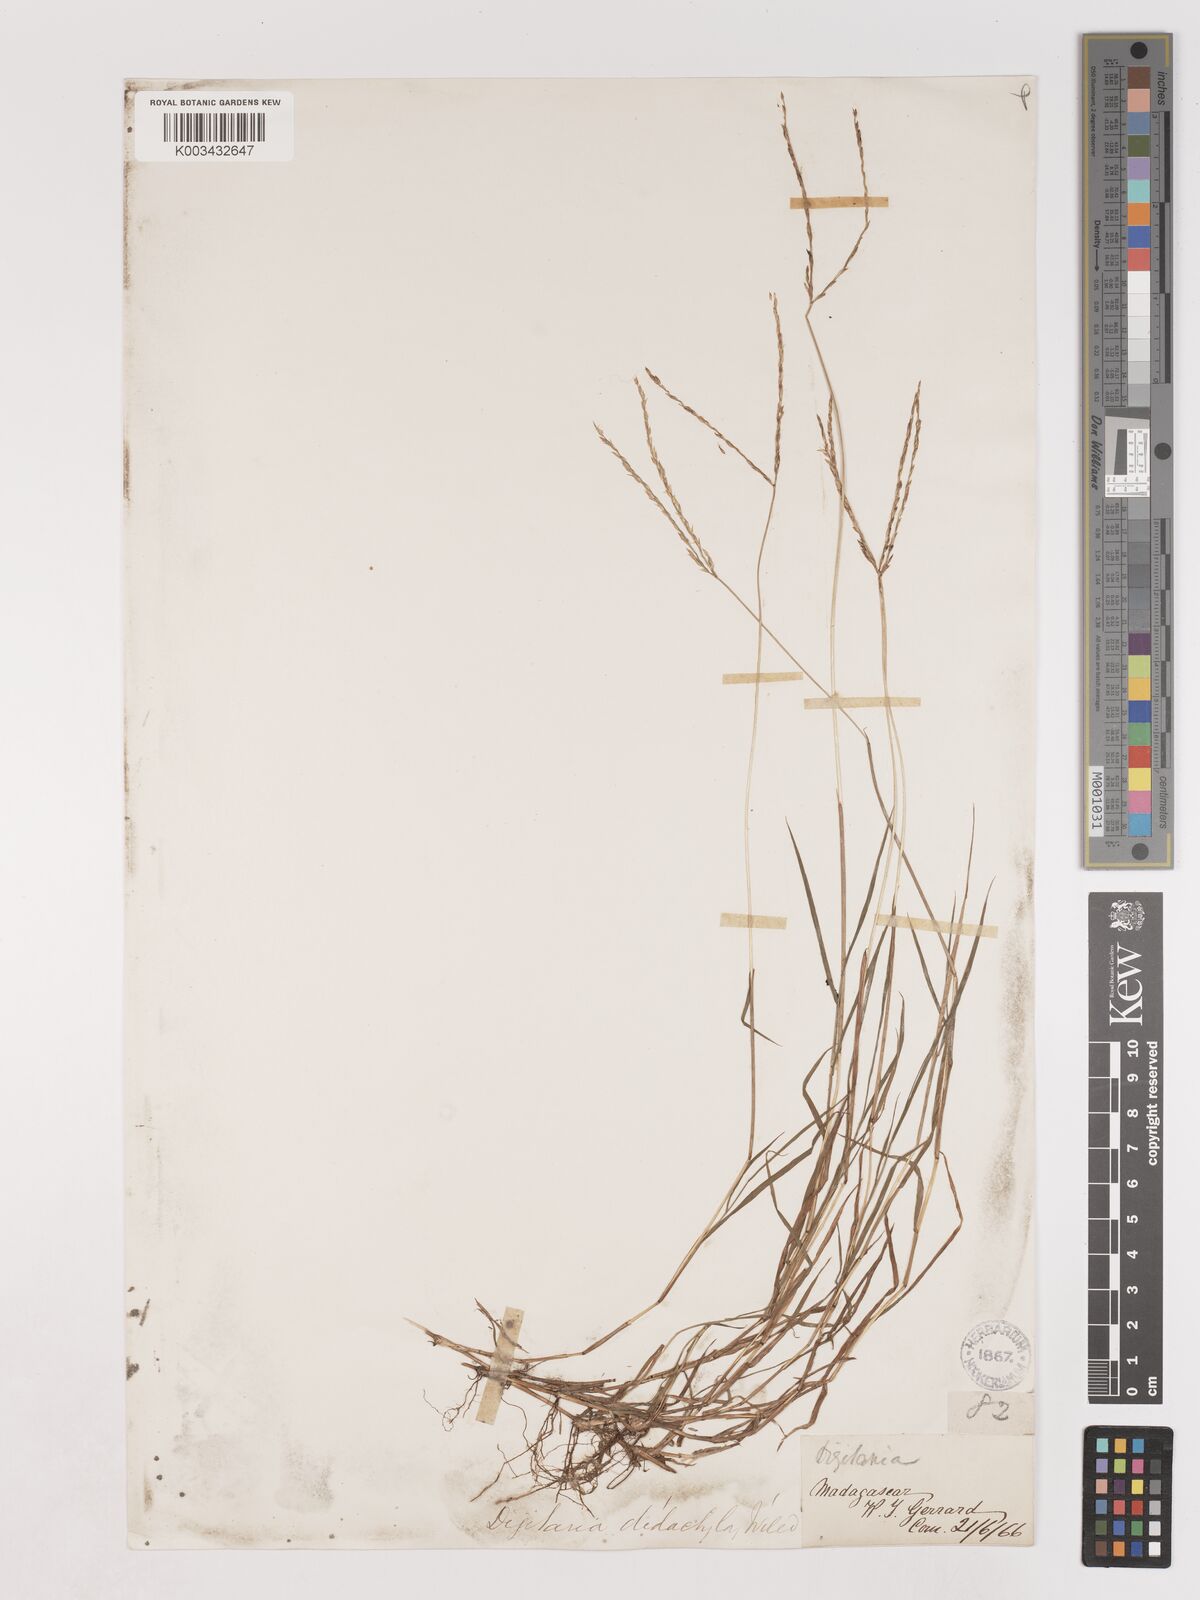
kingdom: Plantae
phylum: Tracheophyta
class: Liliopsida
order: Poales
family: Poaceae
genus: Digitaria
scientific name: Digitaria didactyla
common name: Blue couch
